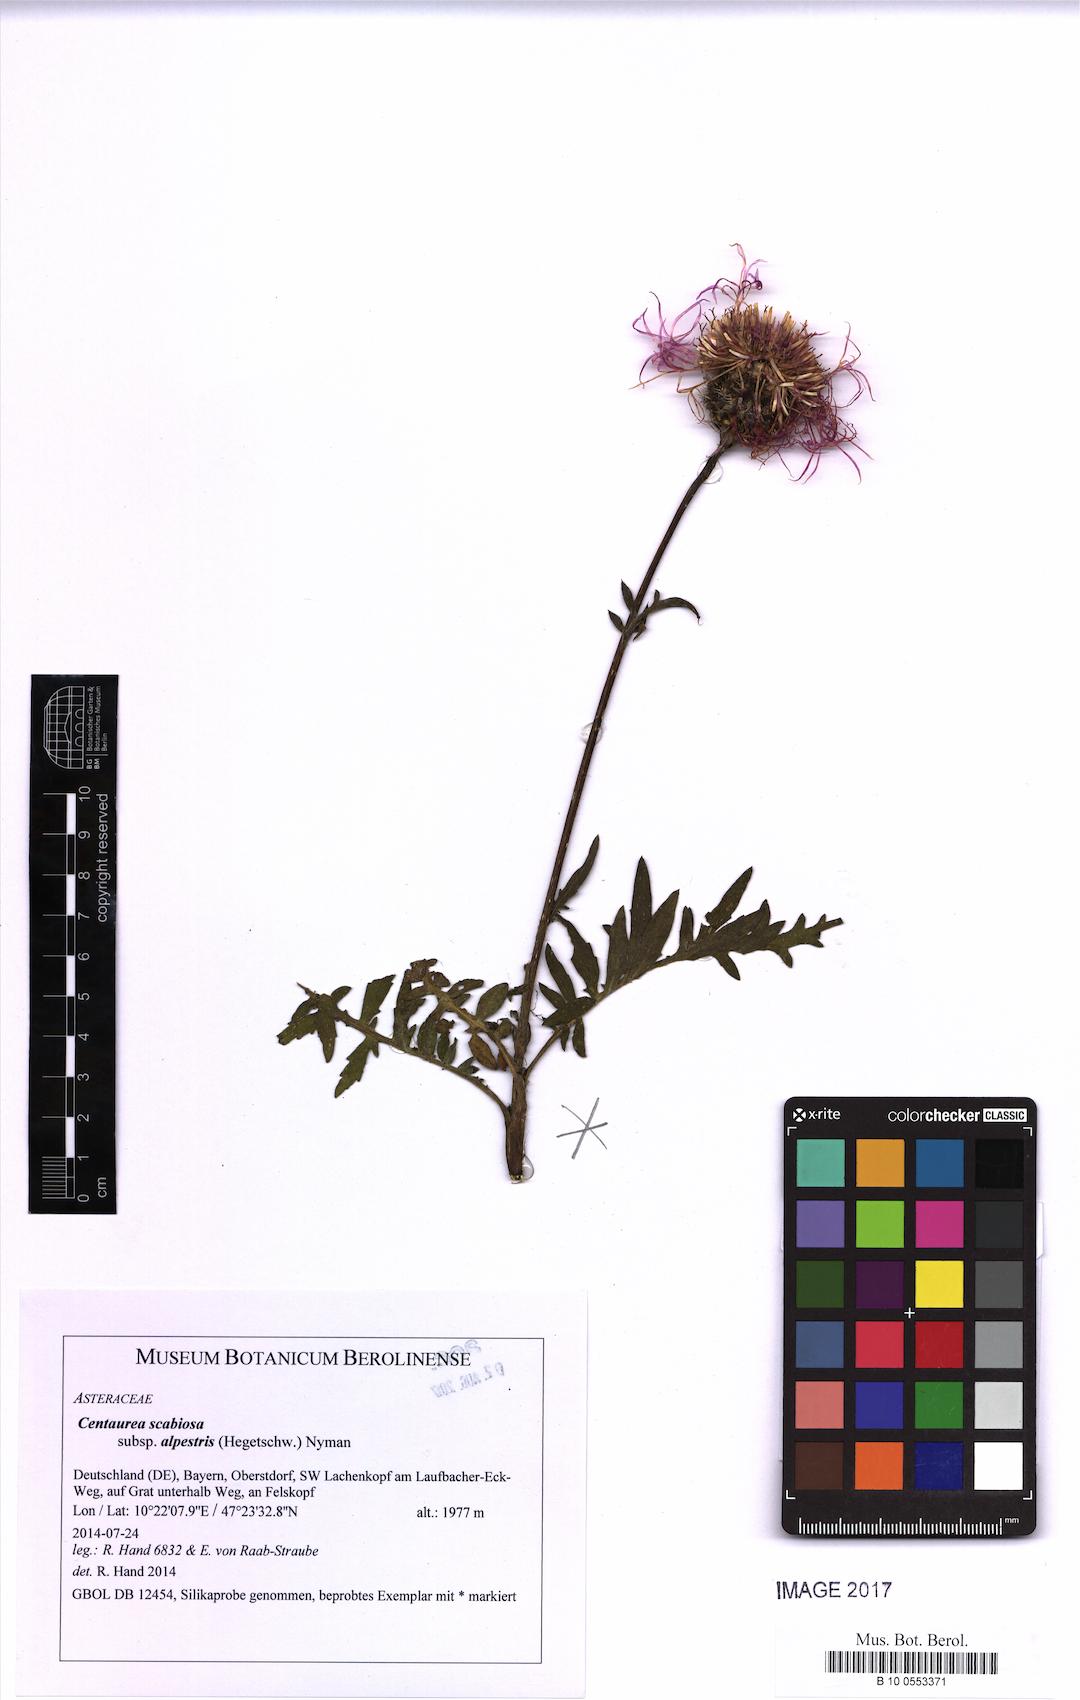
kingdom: Plantae
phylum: Tracheophyta
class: Magnoliopsida
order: Asterales
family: Asteraceae
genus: Centaurea
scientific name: Centaurea scabiosa
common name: Greater knapweed
